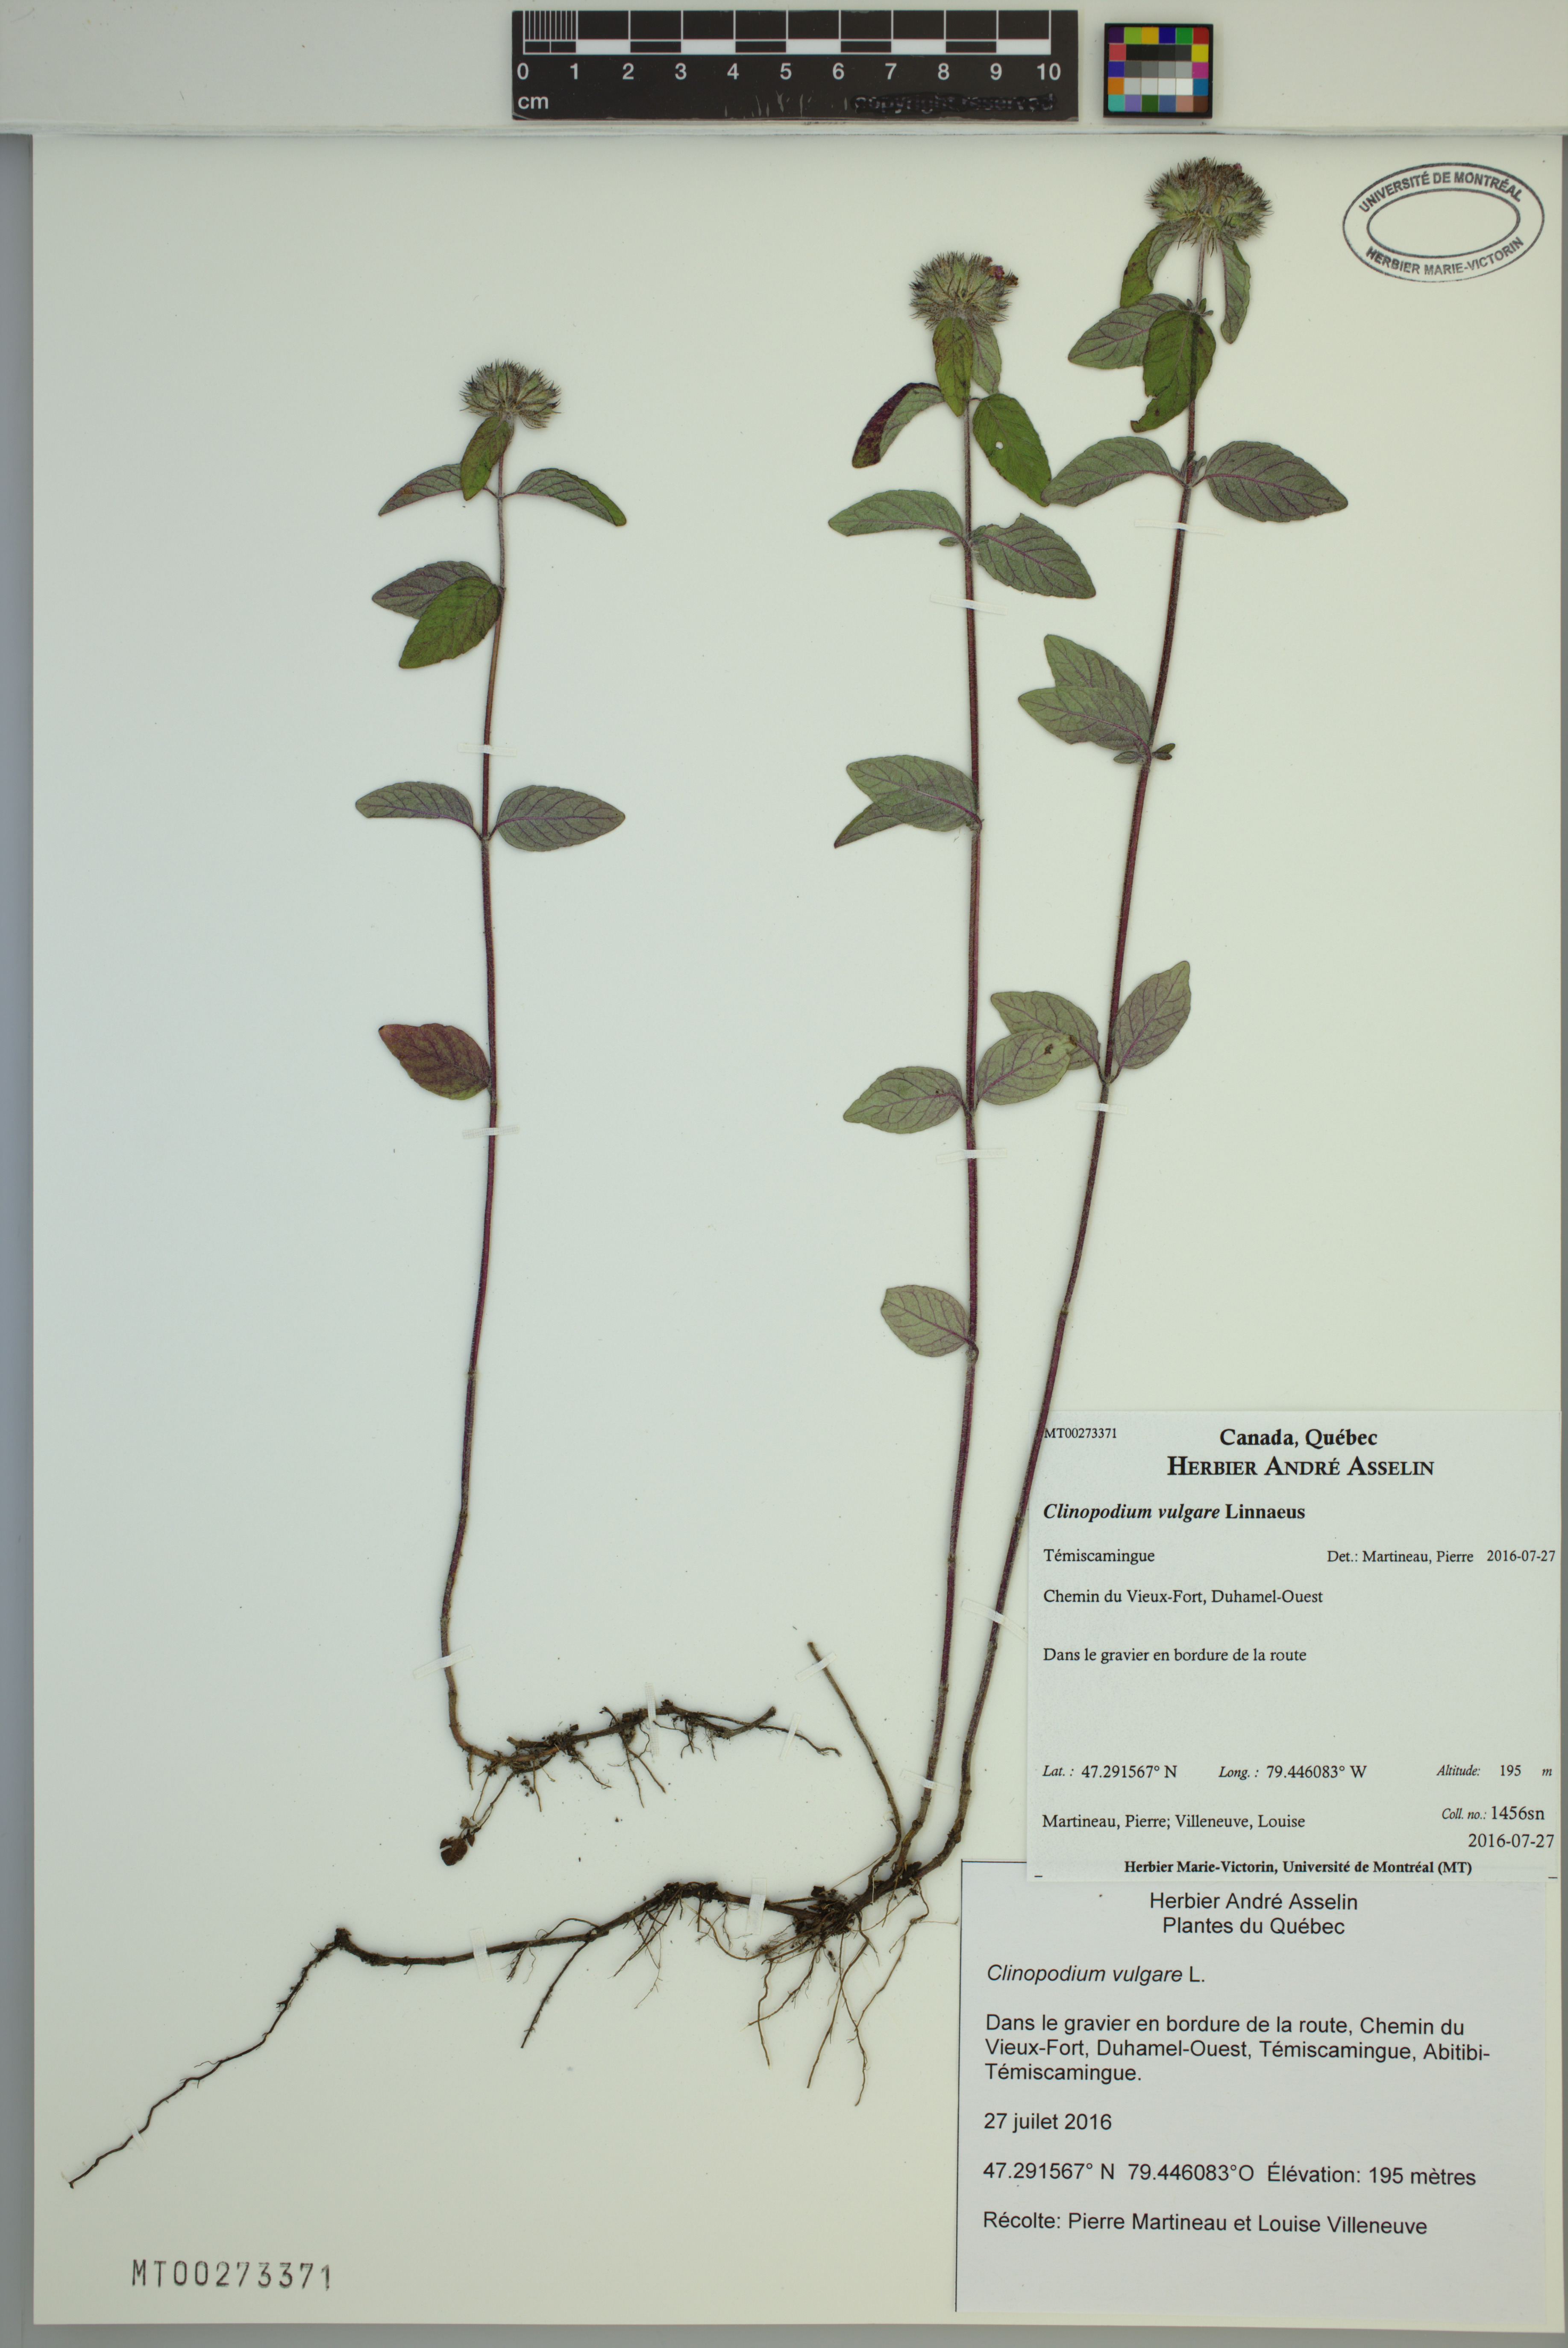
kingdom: Plantae
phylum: Tracheophyta
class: Magnoliopsida
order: Lamiales
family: Lamiaceae
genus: Clinopodium
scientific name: Clinopodium vulgare
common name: Wild basil
